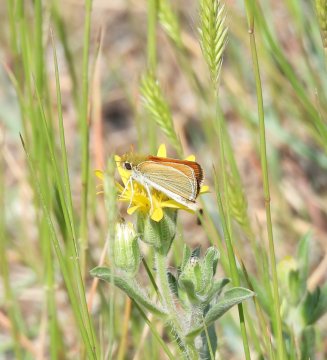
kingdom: Animalia
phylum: Arthropoda
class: Insecta
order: Lepidoptera
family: Hesperiidae
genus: Oarisma
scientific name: Oarisma garita
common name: Garita Skipperling
